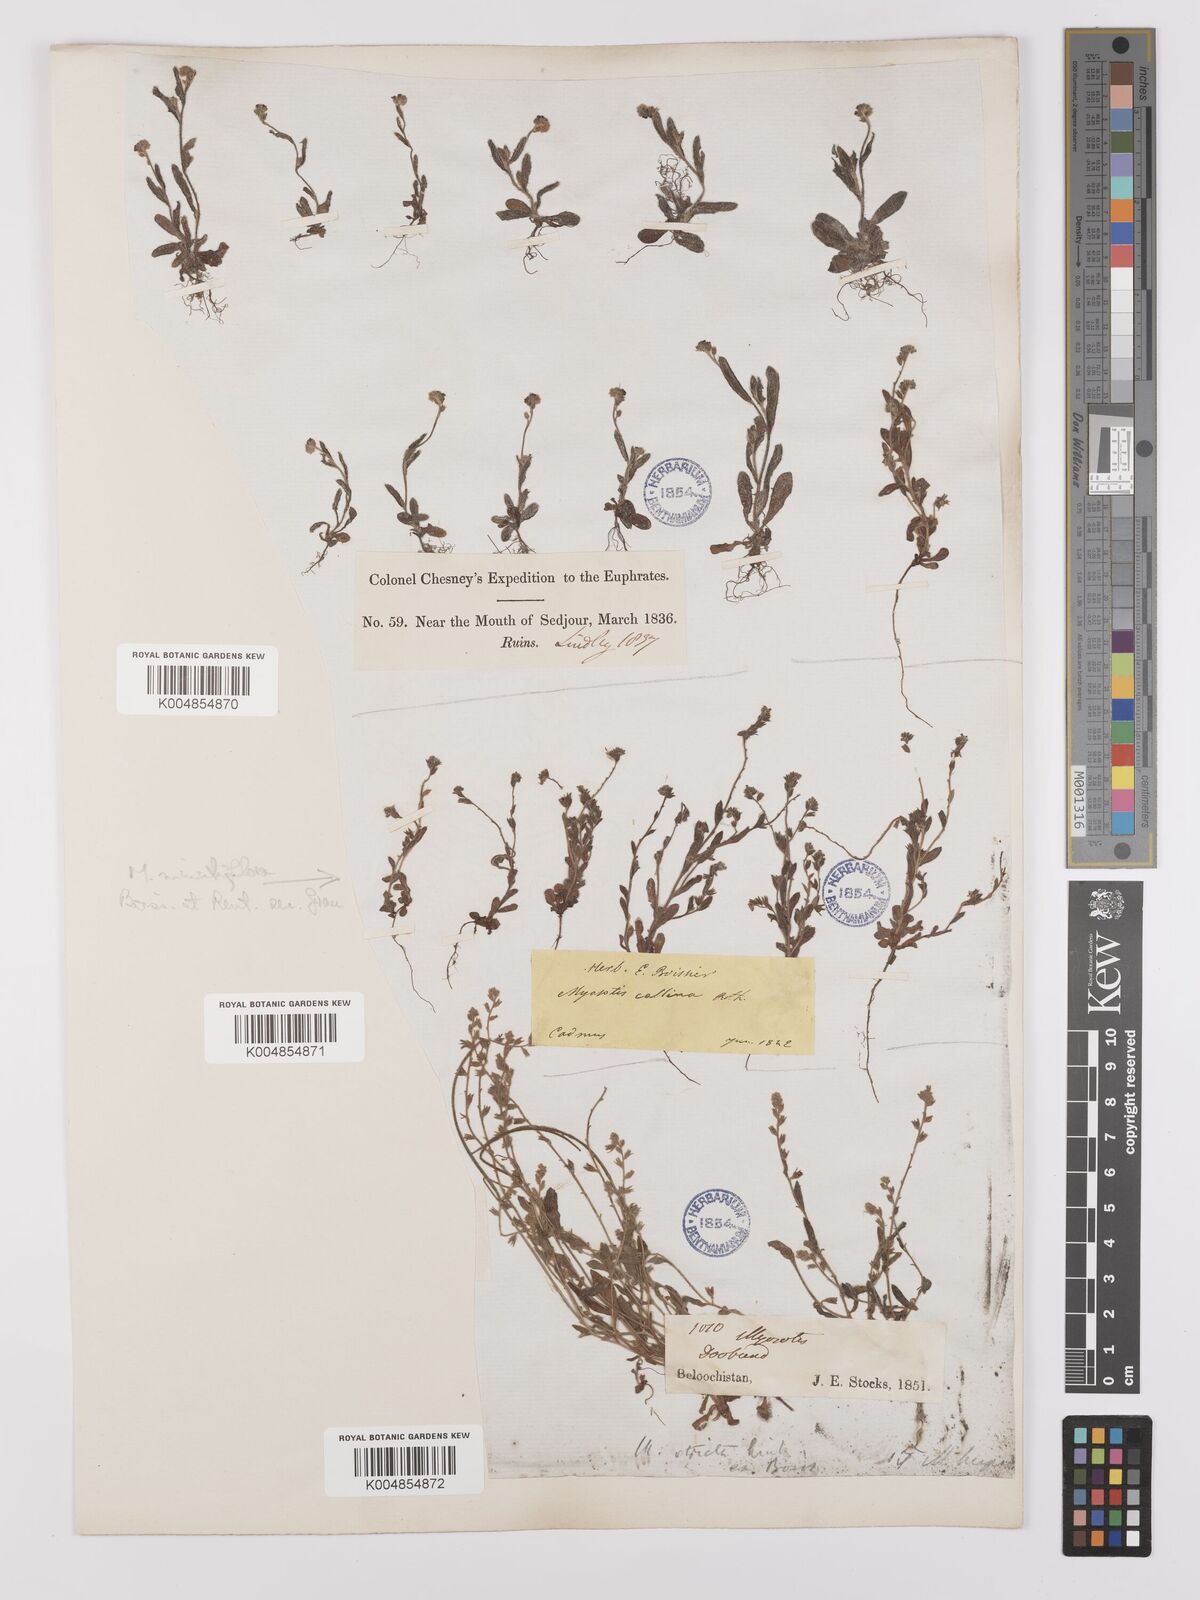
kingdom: Plantae
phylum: Tracheophyta
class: Magnoliopsida
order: Boraginales
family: Boraginaceae
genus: Myosotis
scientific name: Myosotis minutiflora
